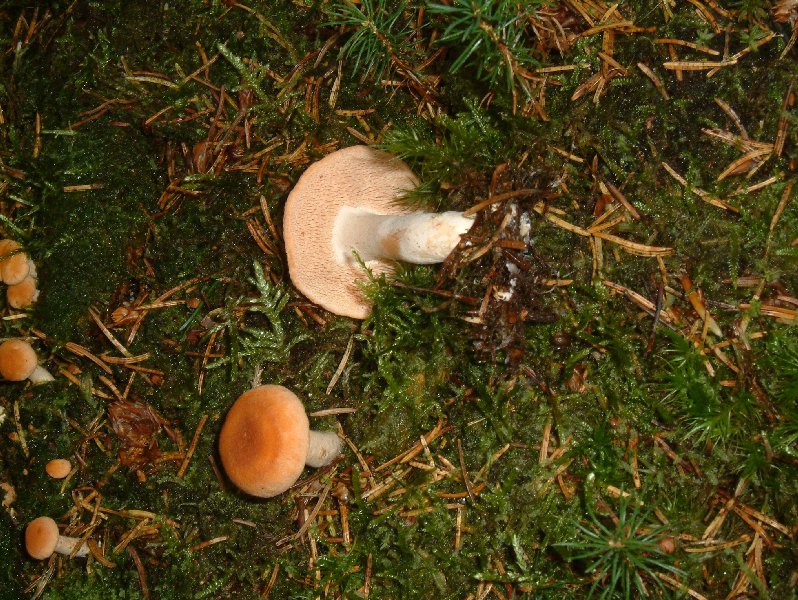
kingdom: Fungi
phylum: Basidiomycota
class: Agaricomycetes
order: Cantharellales
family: Hydnaceae
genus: Hydnum
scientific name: Hydnum rufescens
